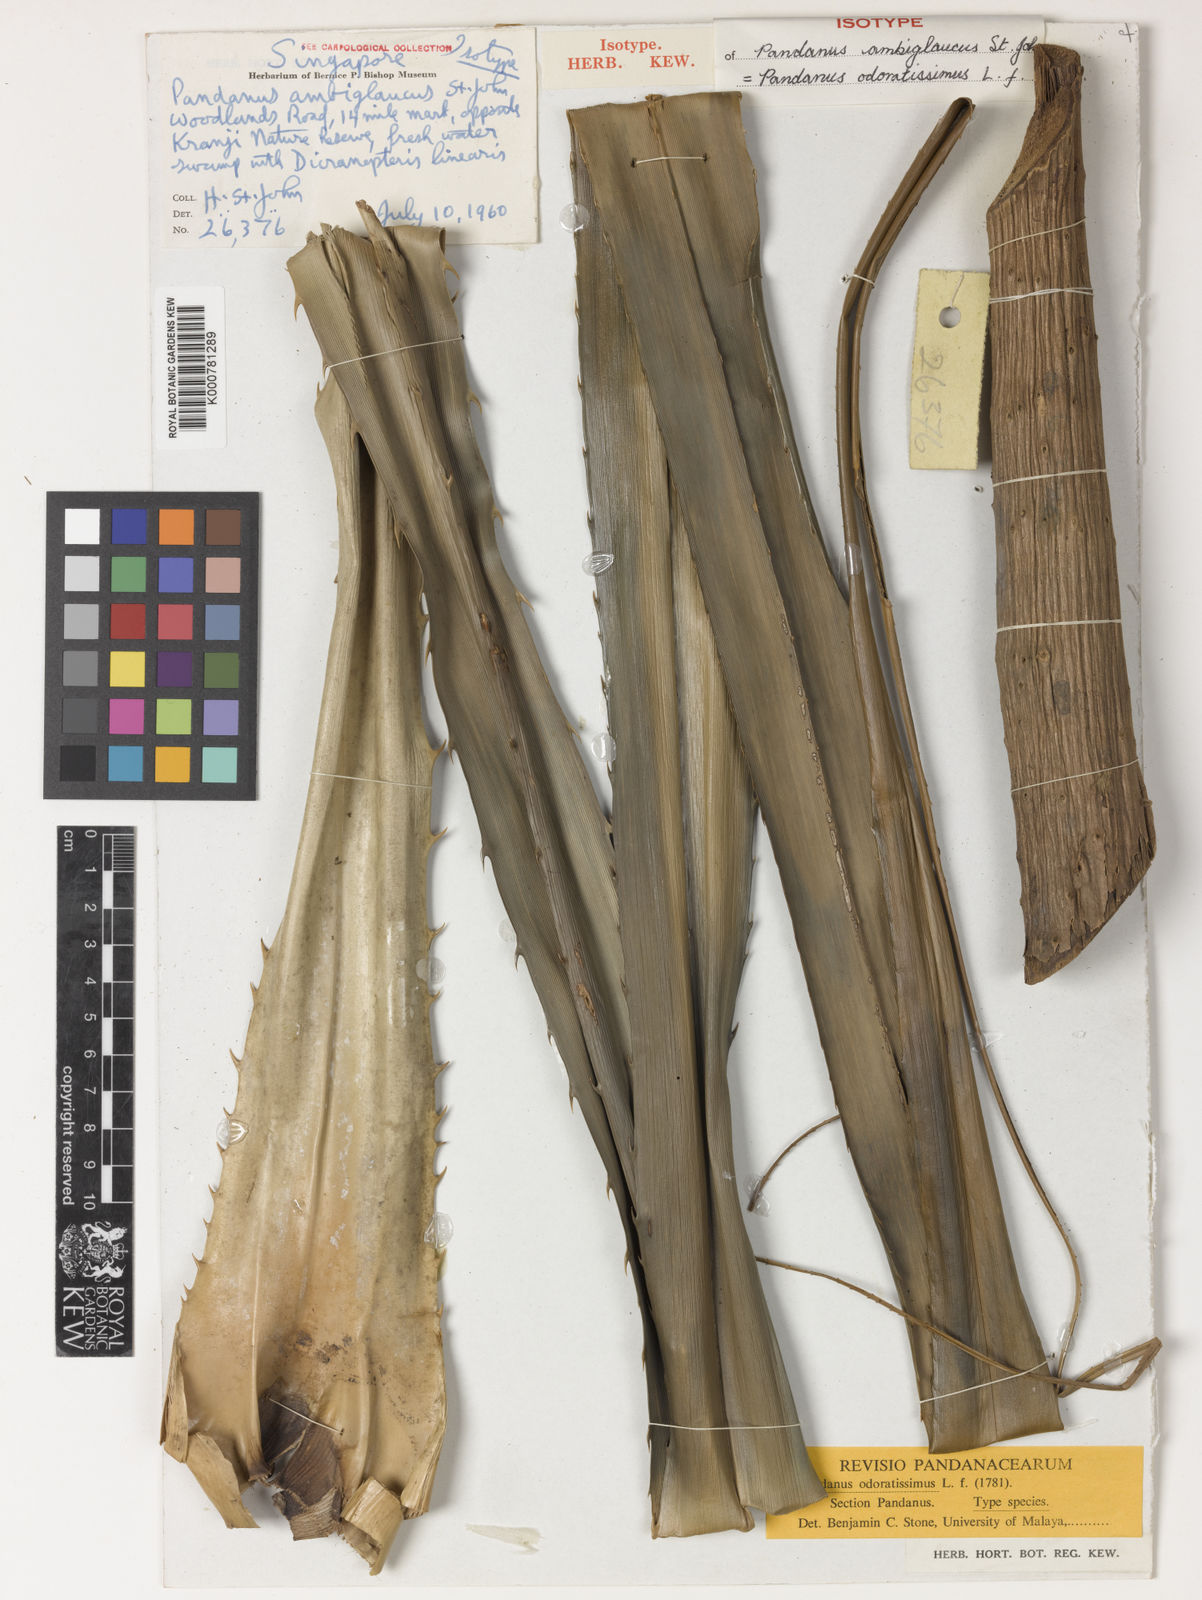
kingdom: Plantae
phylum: Tracheophyta
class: Liliopsida
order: Pandanales
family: Pandanaceae
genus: Pandanus
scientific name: Pandanus odorifer
